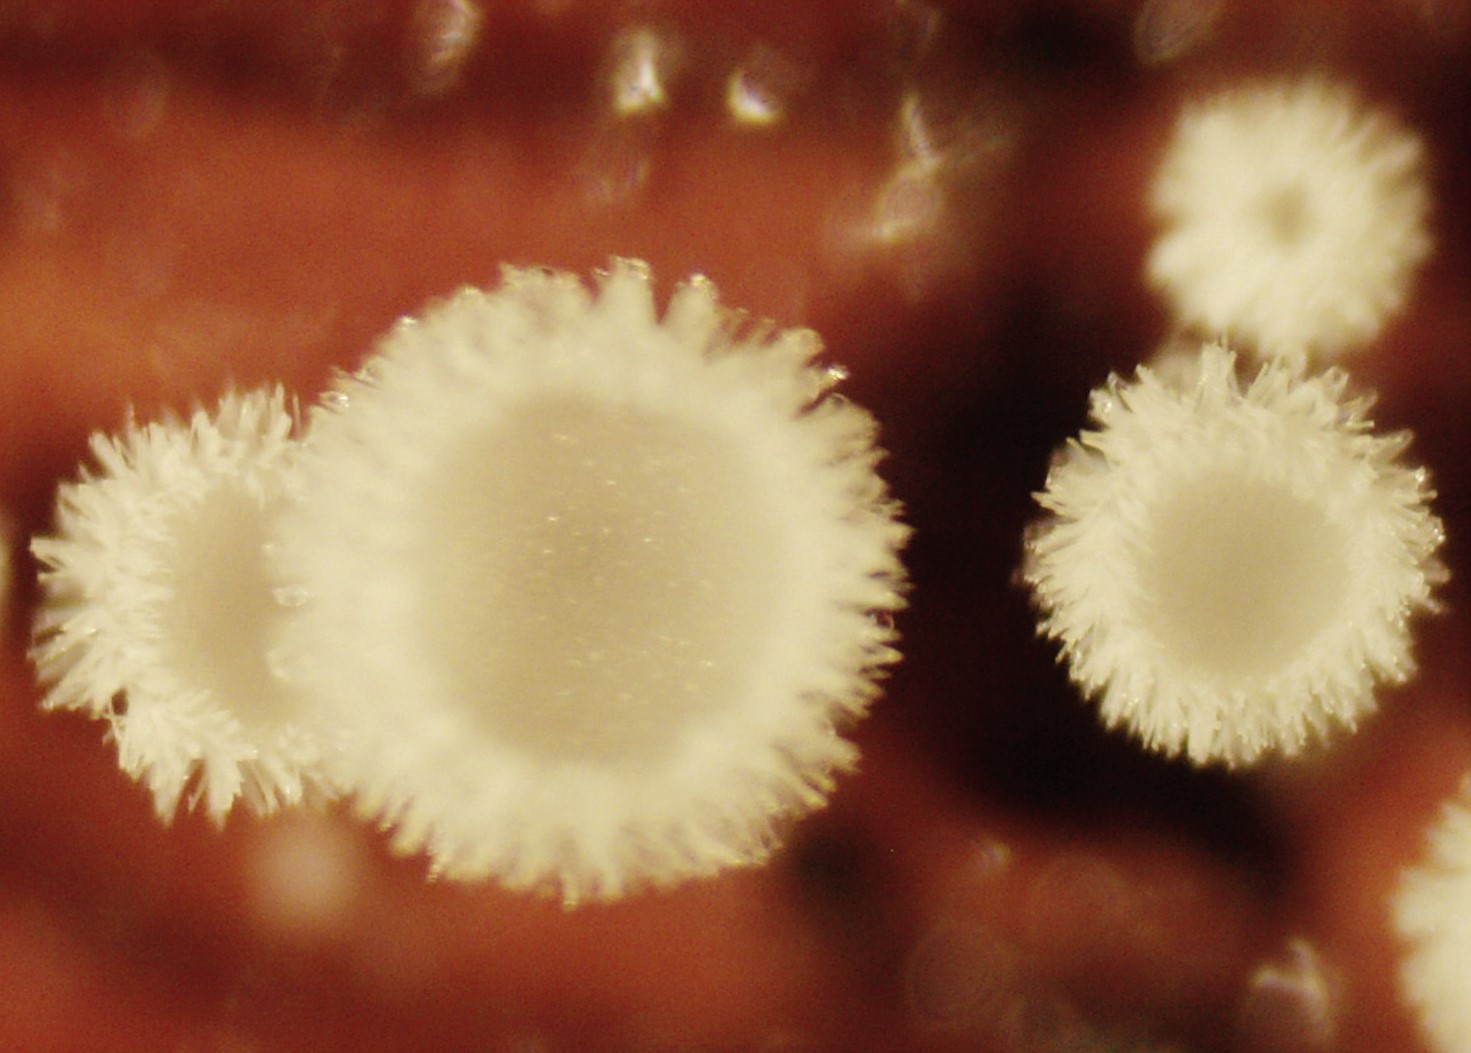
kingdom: Fungi
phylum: Ascomycota
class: Leotiomycetes
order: Helotiales
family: Lachnaceae
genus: Lachnum
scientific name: Lachnum virgineum
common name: jomfru-frynseskive
